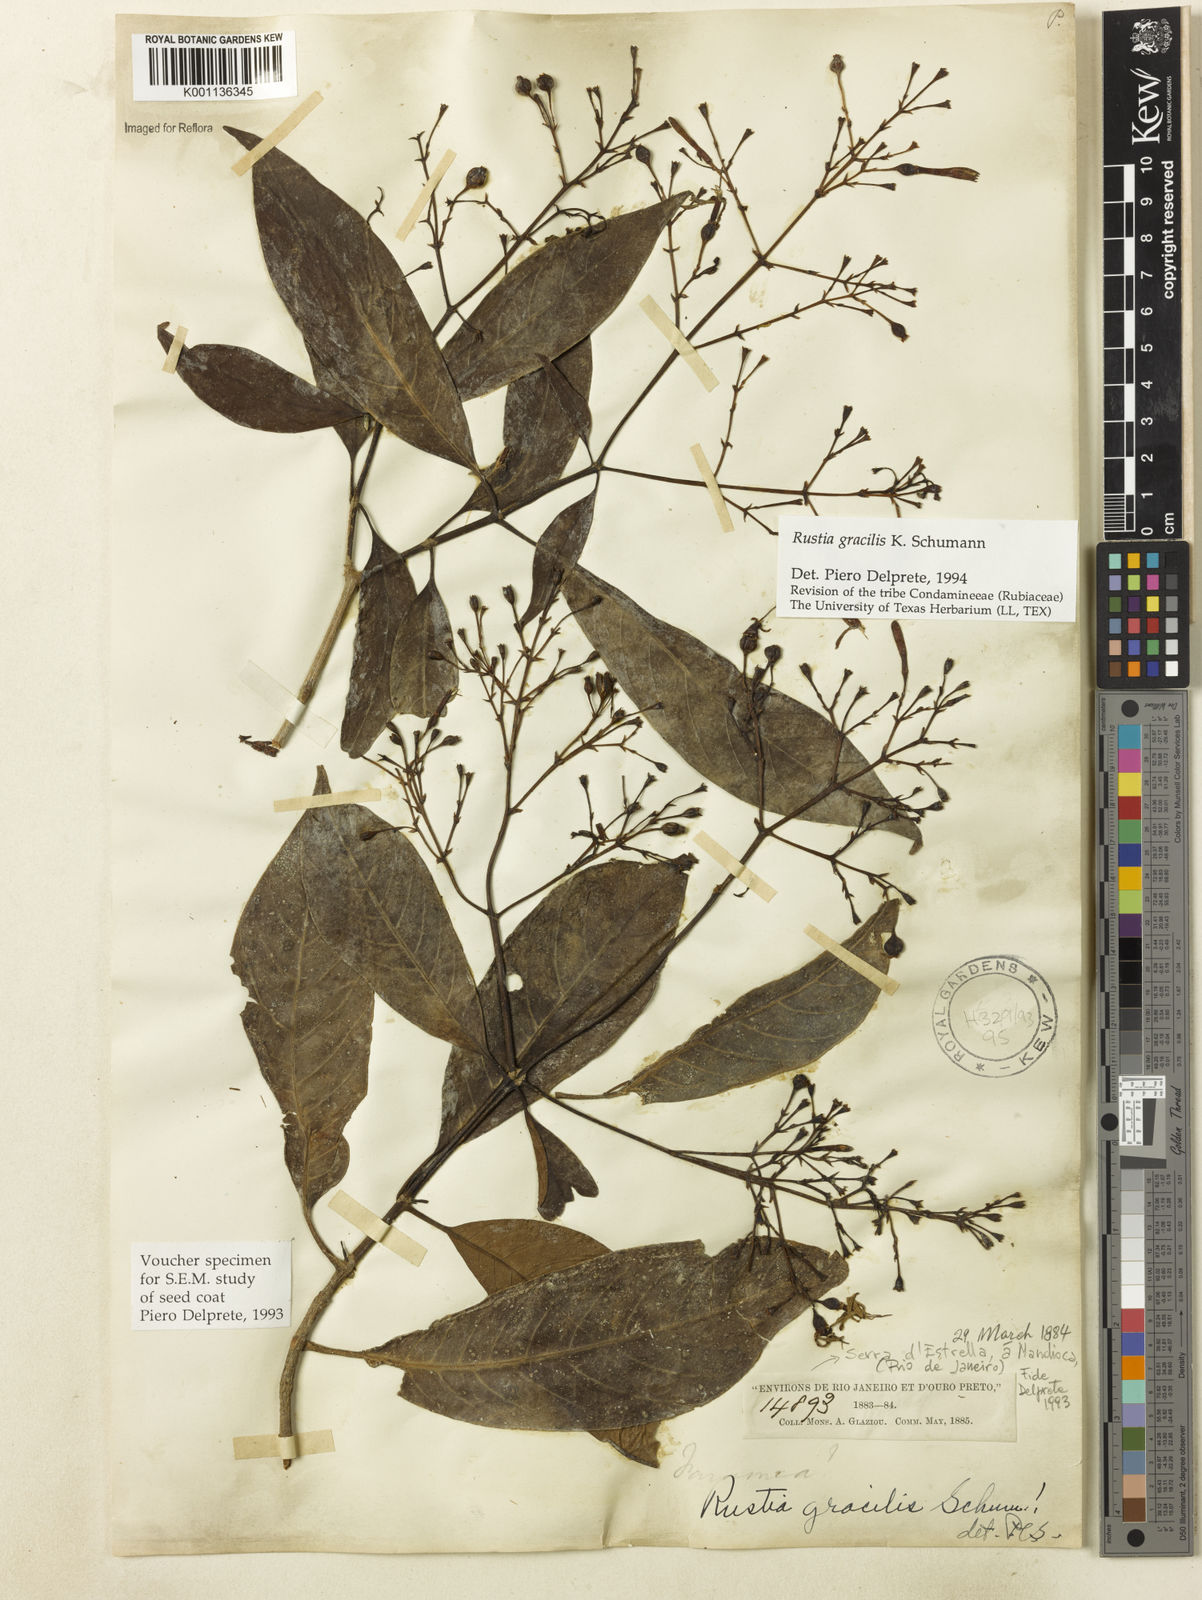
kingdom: Plantae
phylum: Tracheophyta
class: Magnoliopsida
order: Gentianales
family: Rubiaceae
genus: Rustia
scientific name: Rustia gracilis
